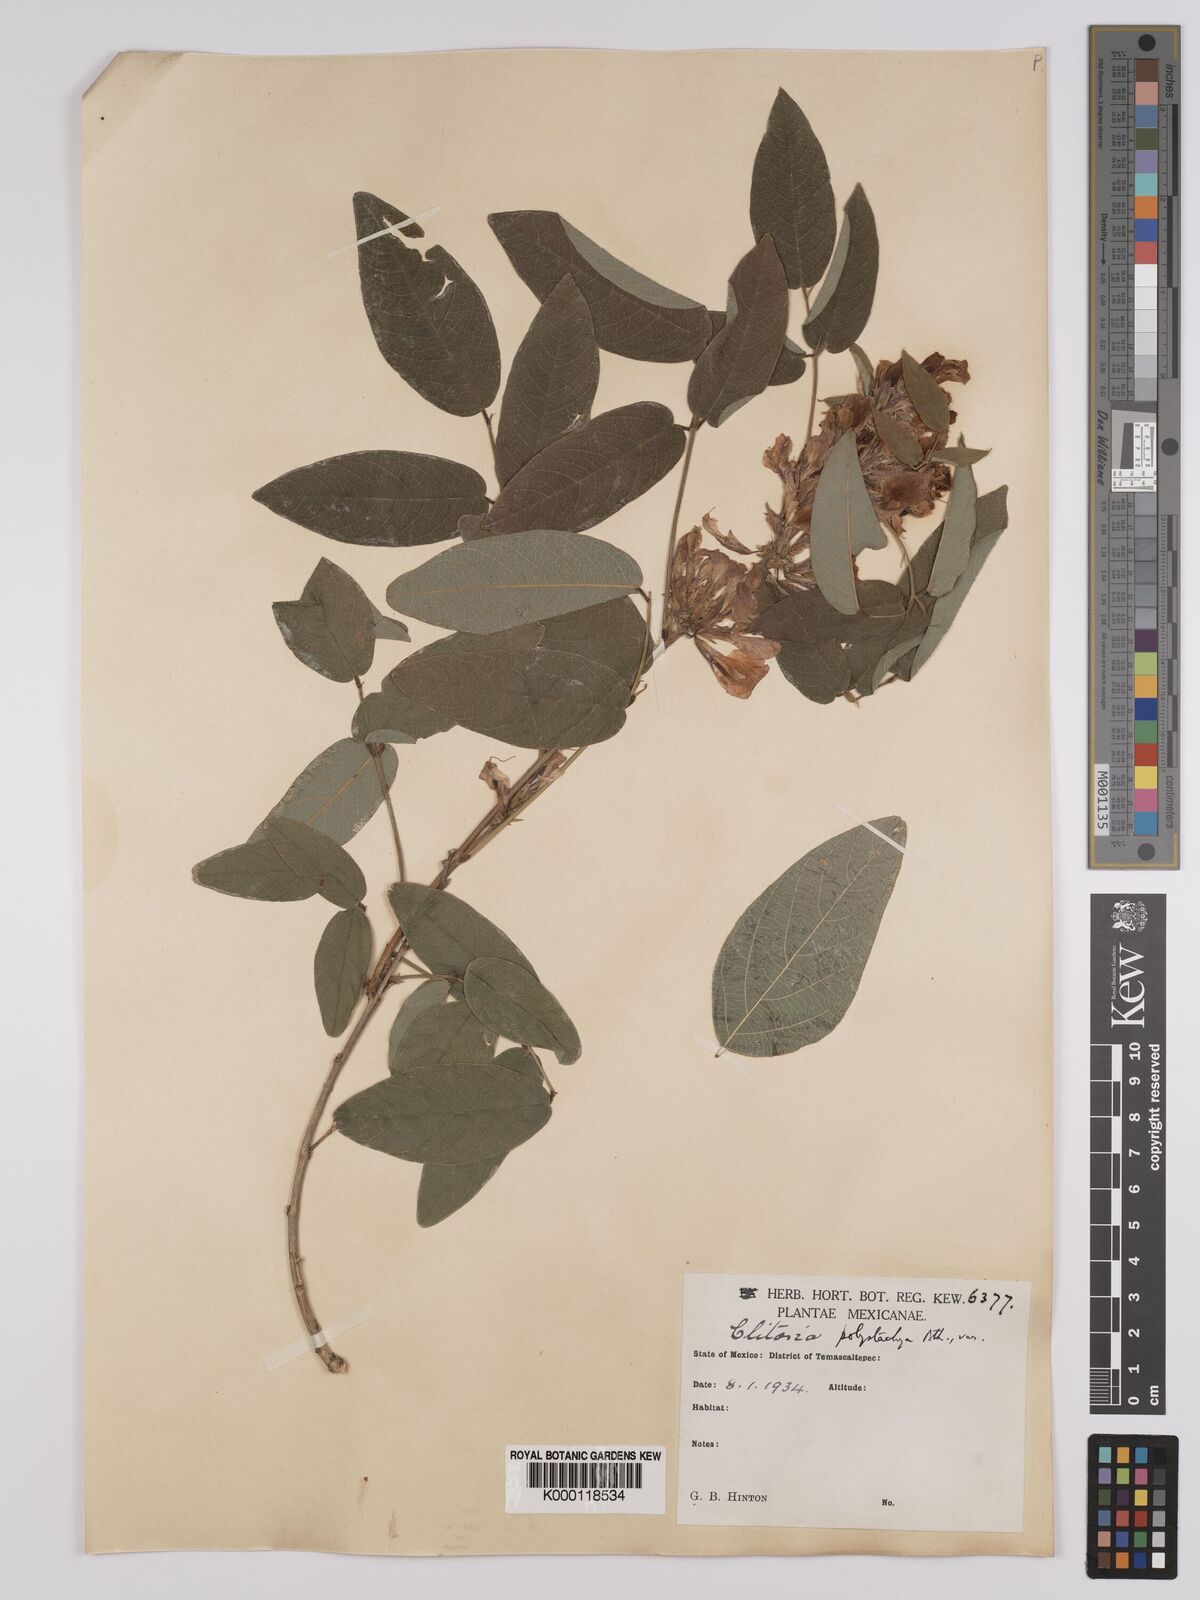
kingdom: Plantae
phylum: Tracheophyta
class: Magnoliopsida
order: Fabales
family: Fabaceae
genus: Clitoria
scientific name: Clitoria polystachya
